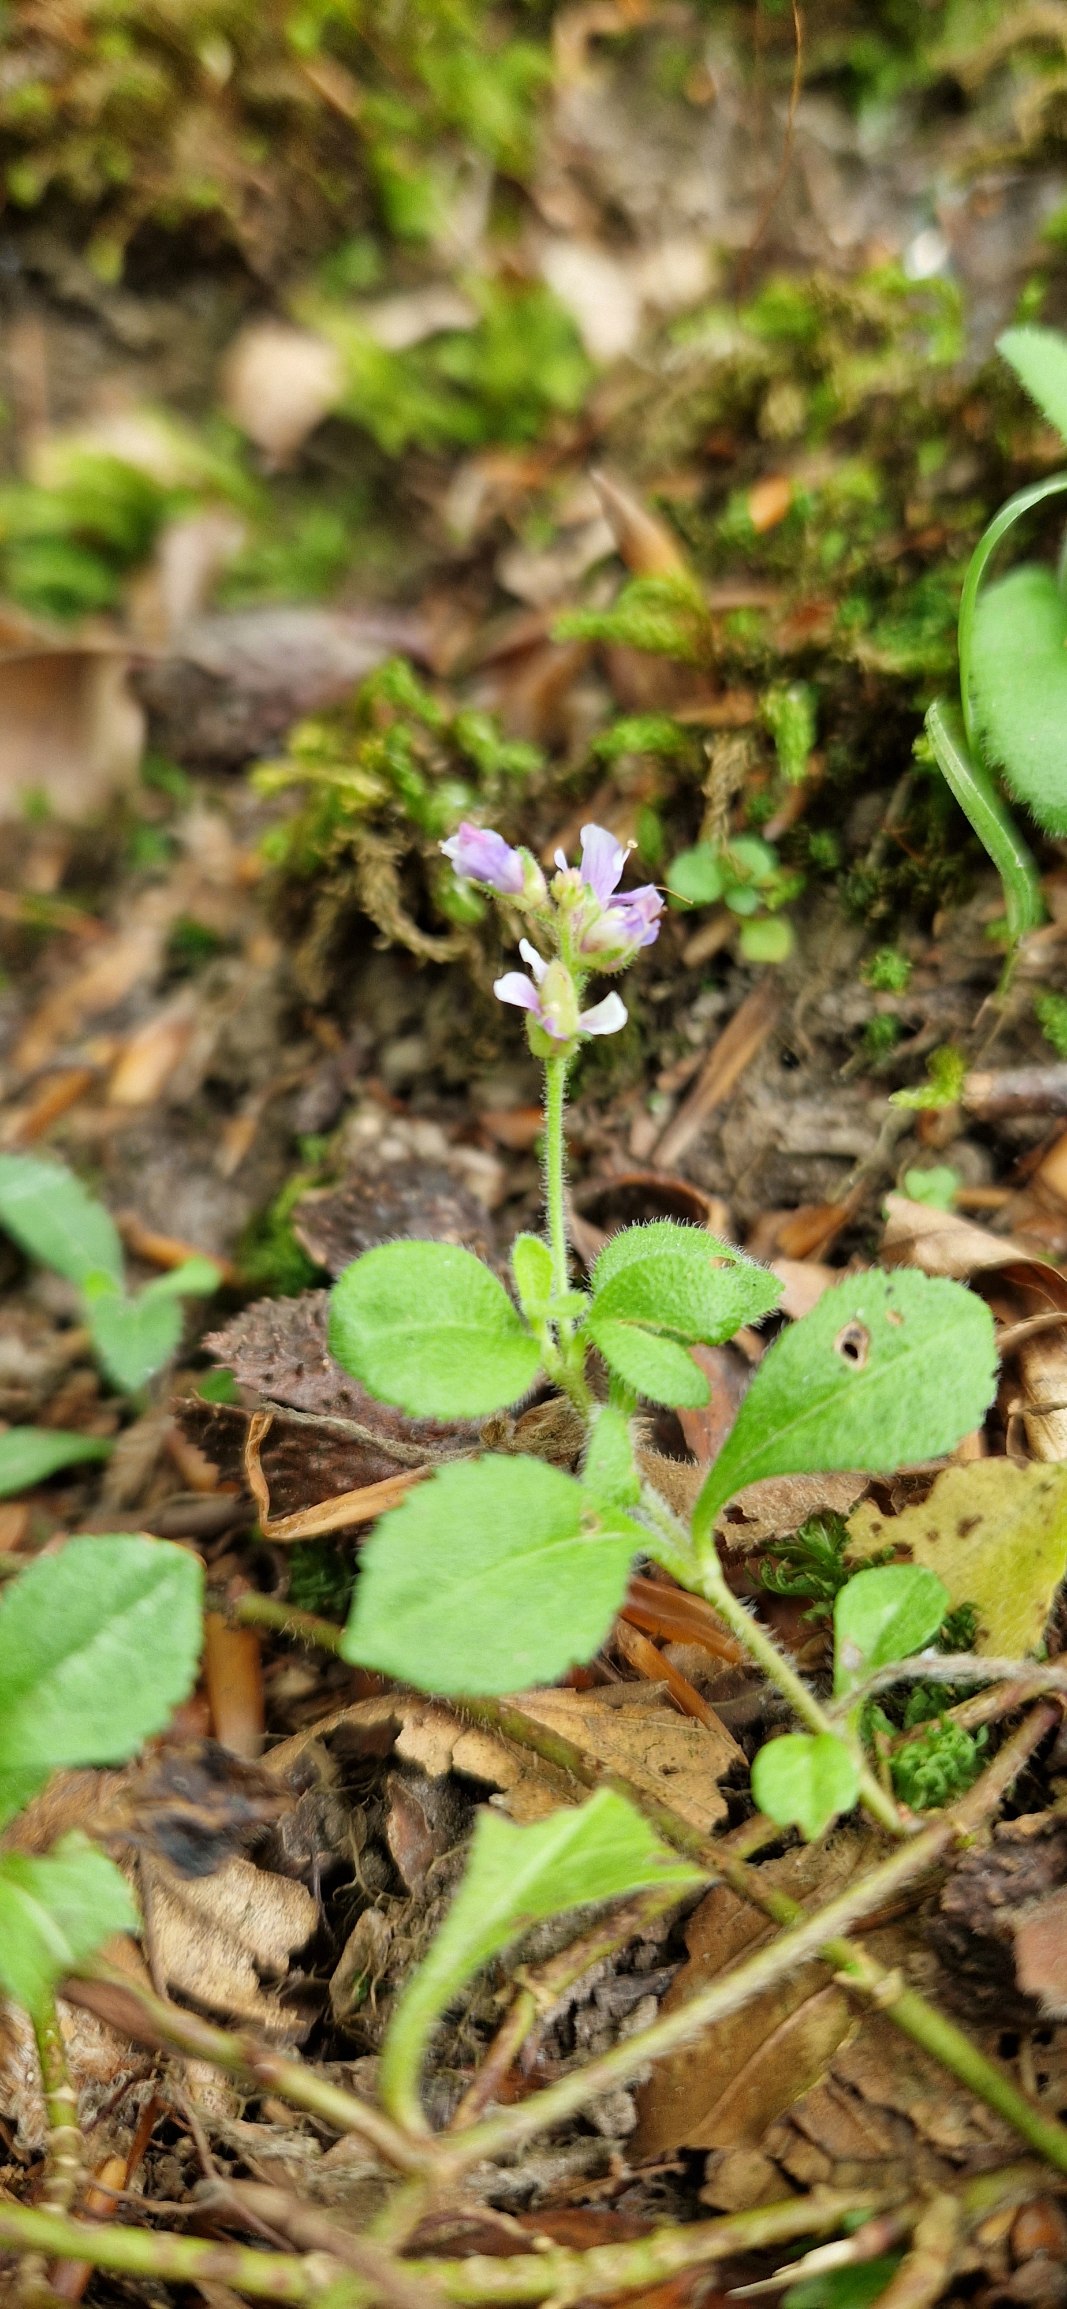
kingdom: Plantae
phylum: Tracheophyta
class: Magnoliopsida
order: Lamiales
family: Plantaginaceae
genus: Veronica
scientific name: Veronica officinalis
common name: Læge-ærenpris
